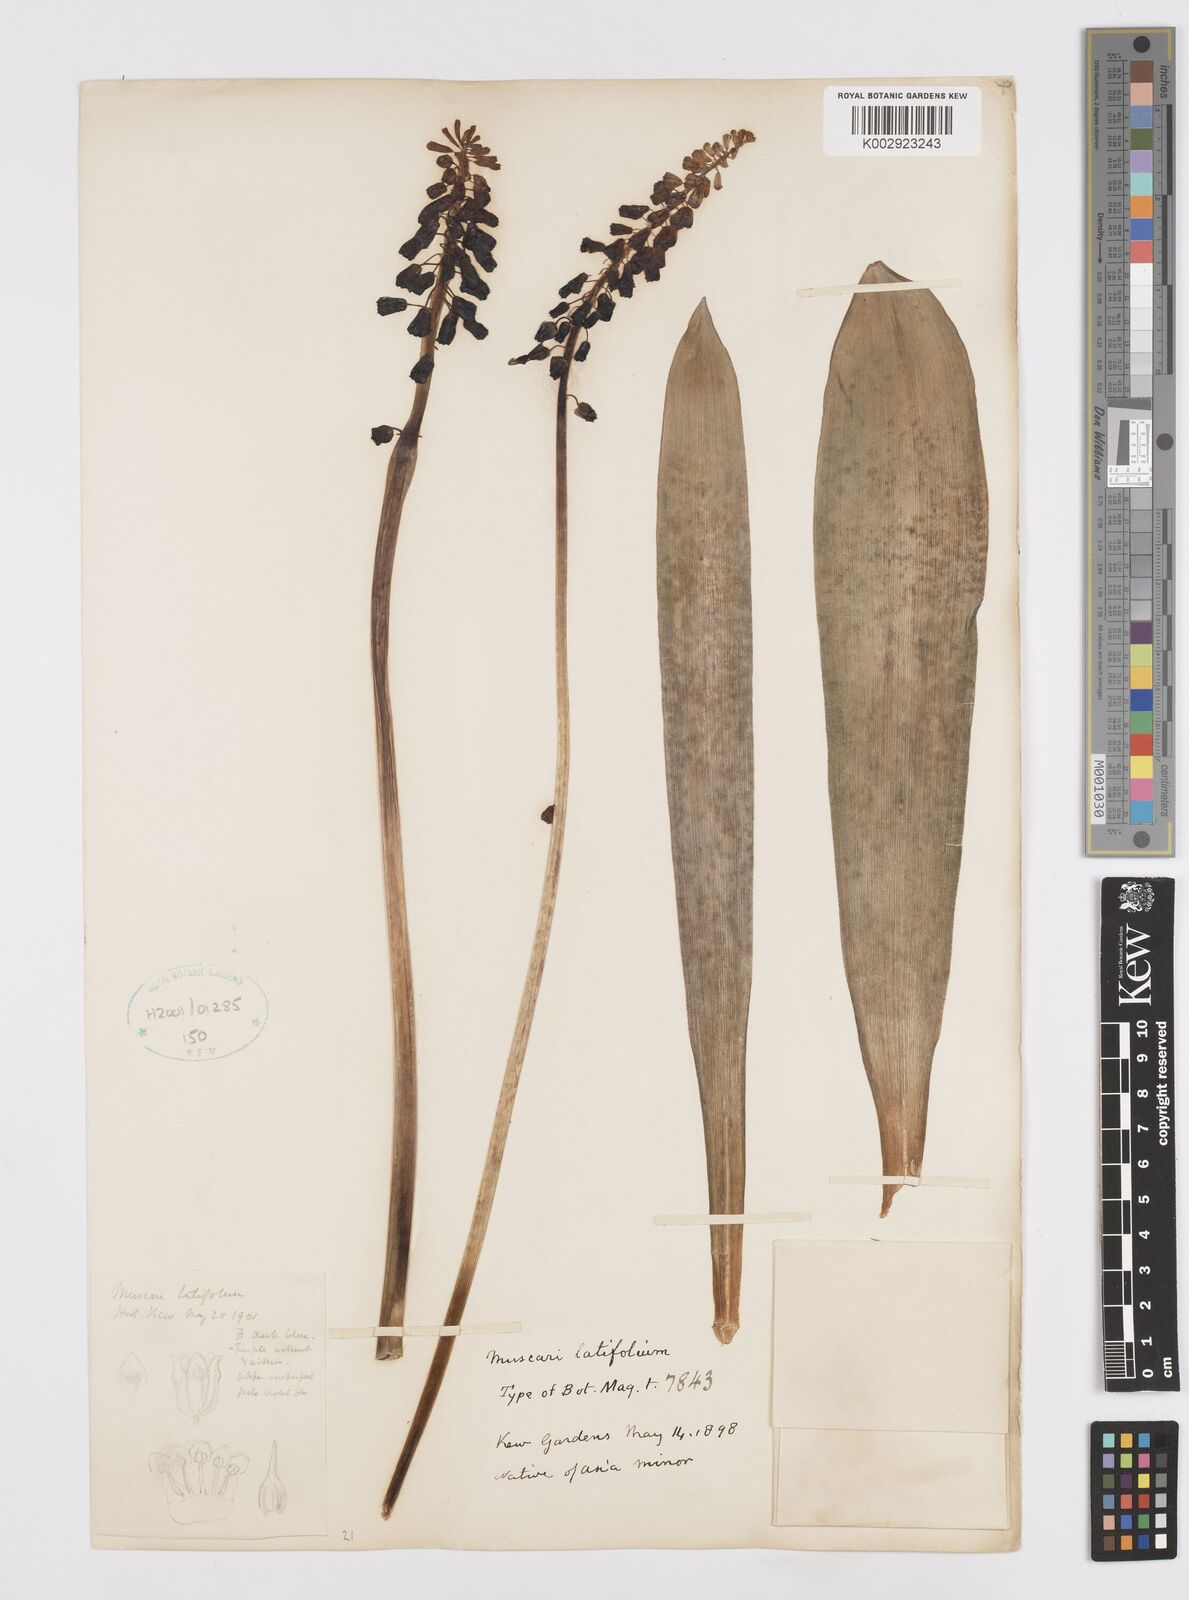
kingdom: Plantae
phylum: Tracheophyta
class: Liliopsida
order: Asparagales
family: Asparagaceae
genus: Muscari
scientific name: Muscari latifolium
